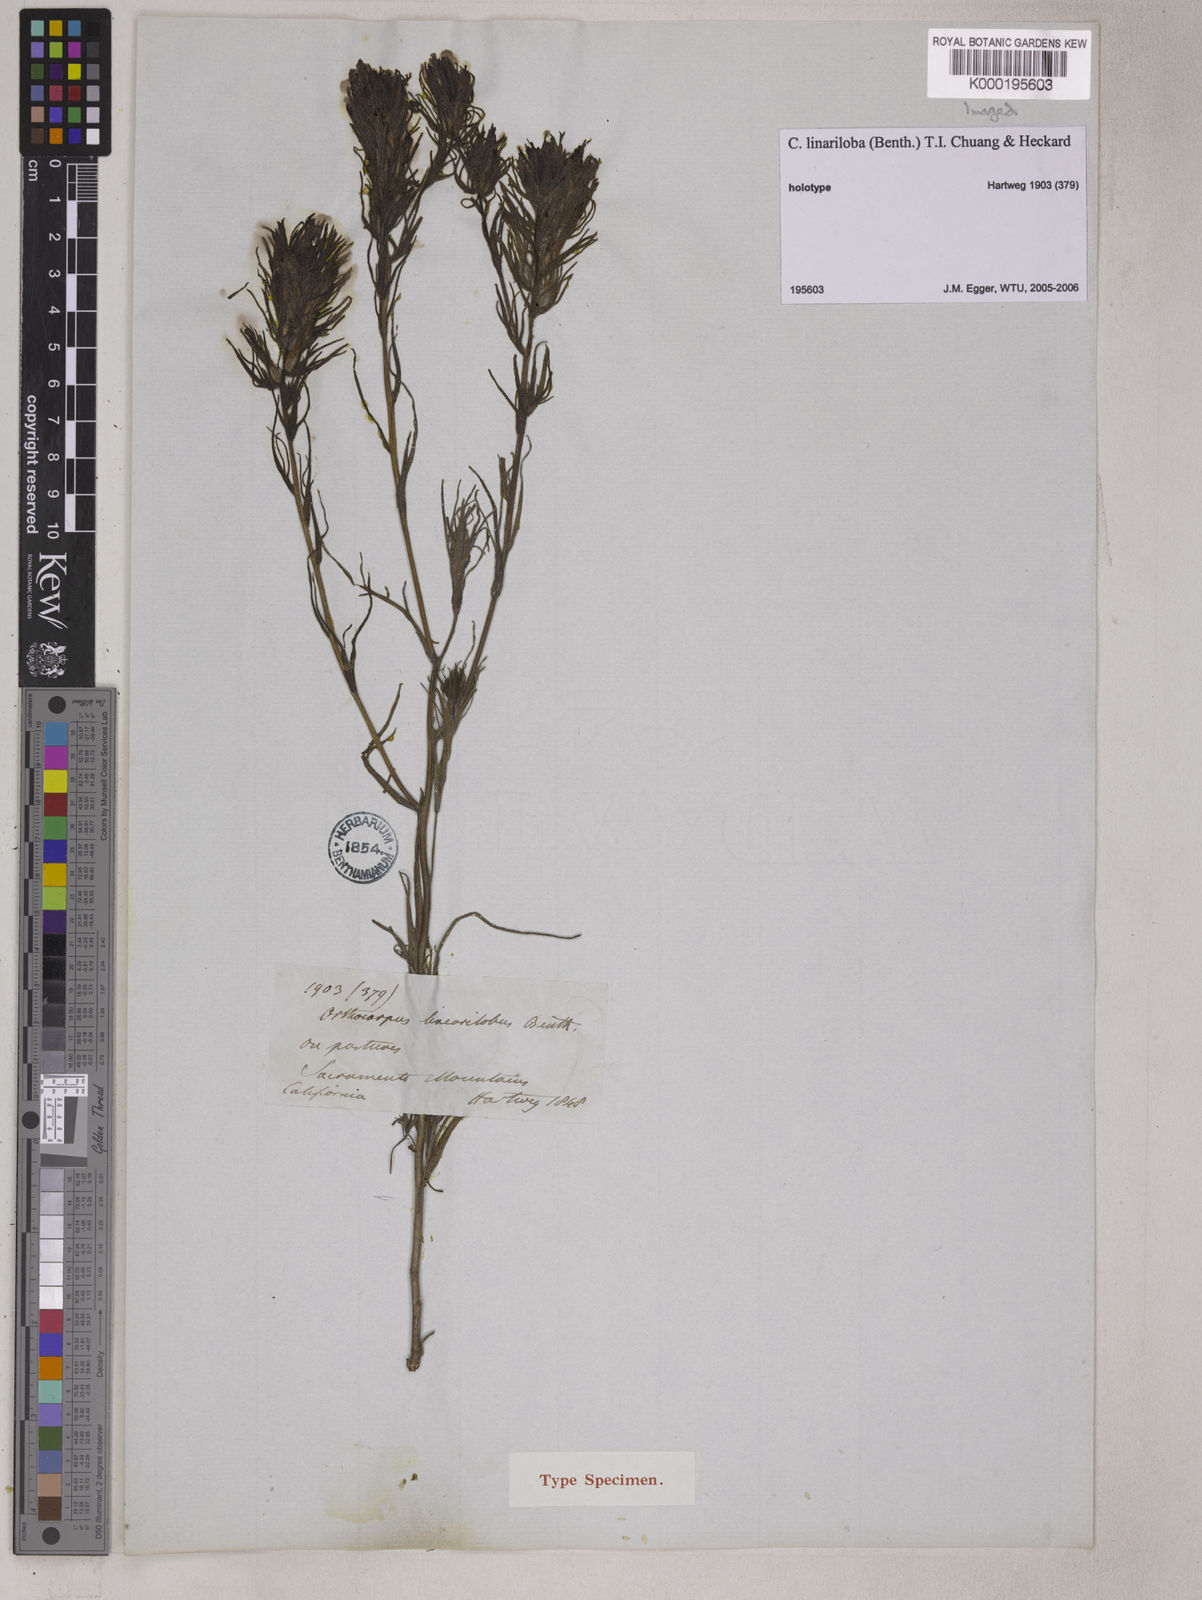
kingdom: Plantae
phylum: Tracheophyta
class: Magnoliopsida
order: Lamiales
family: Orobanchaceae
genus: Castilleja
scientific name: Castilleja lineariloba
